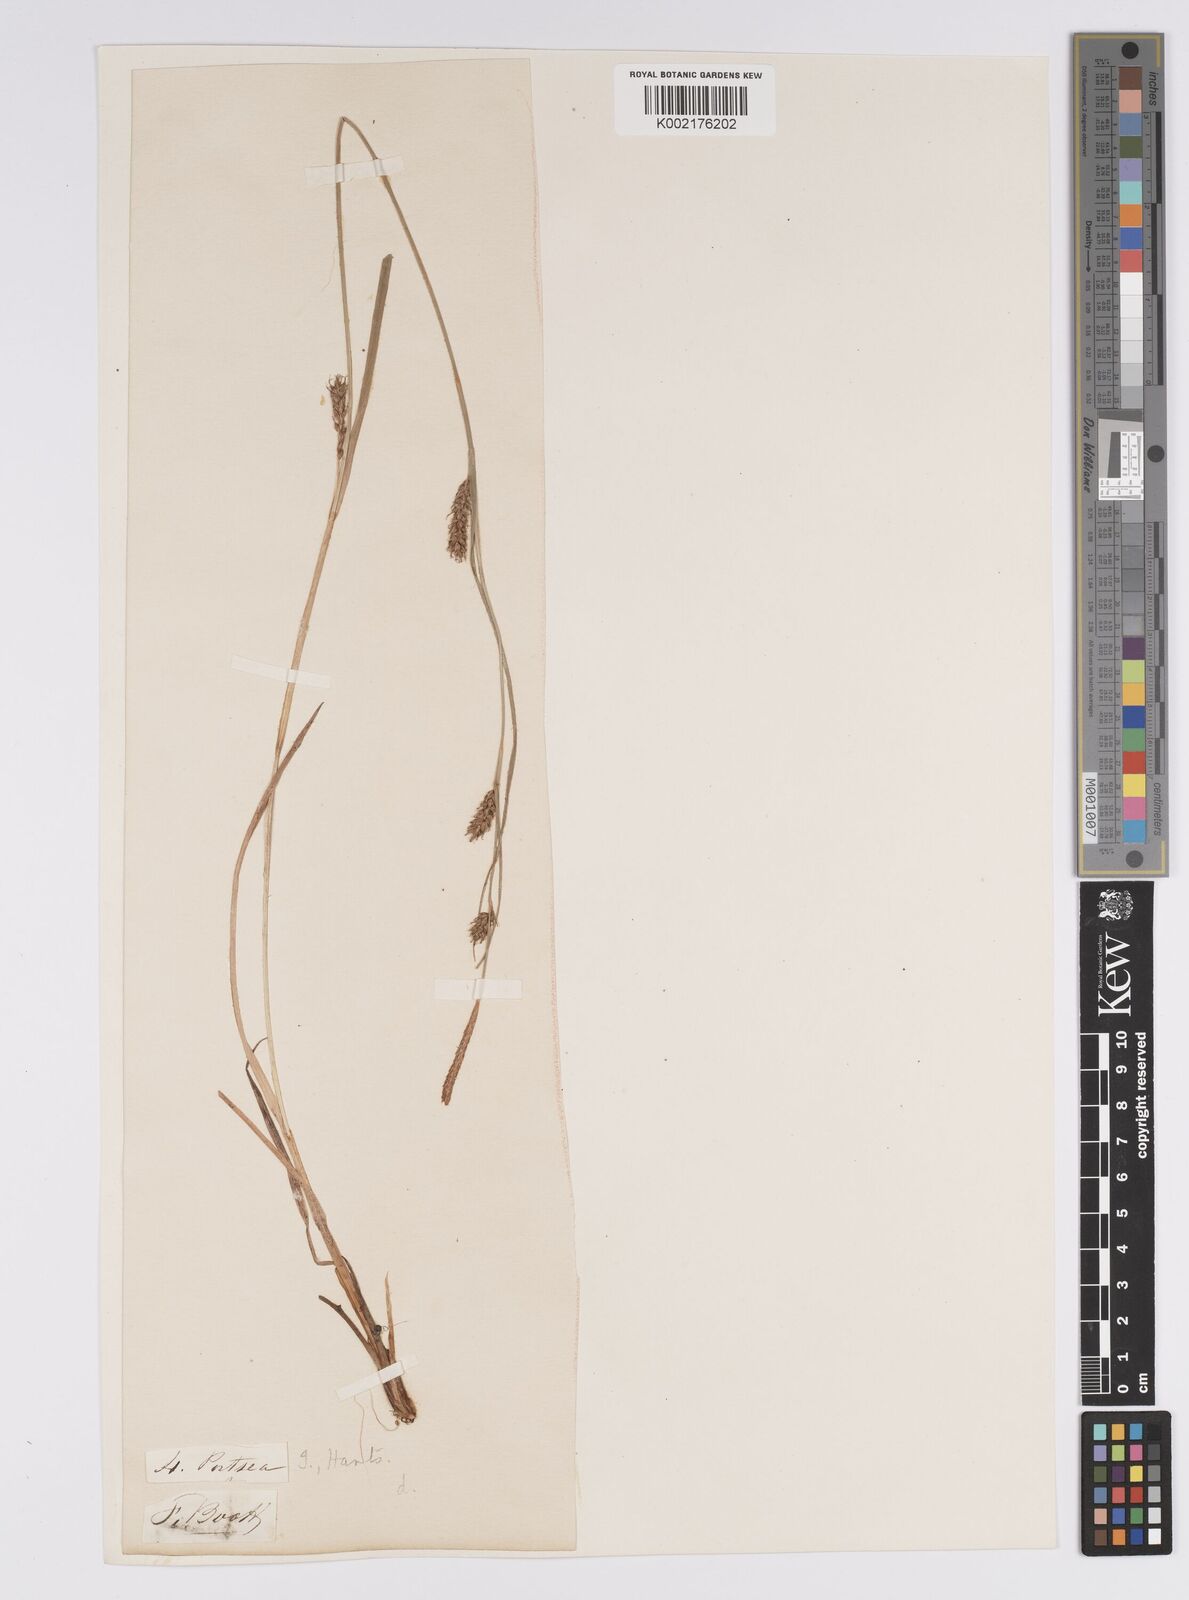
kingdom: Plantae
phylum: Tracheophyta
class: Liliopsida
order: Poales
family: Cyperaceae
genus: Carex
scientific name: Carex distans
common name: Distant sedge
